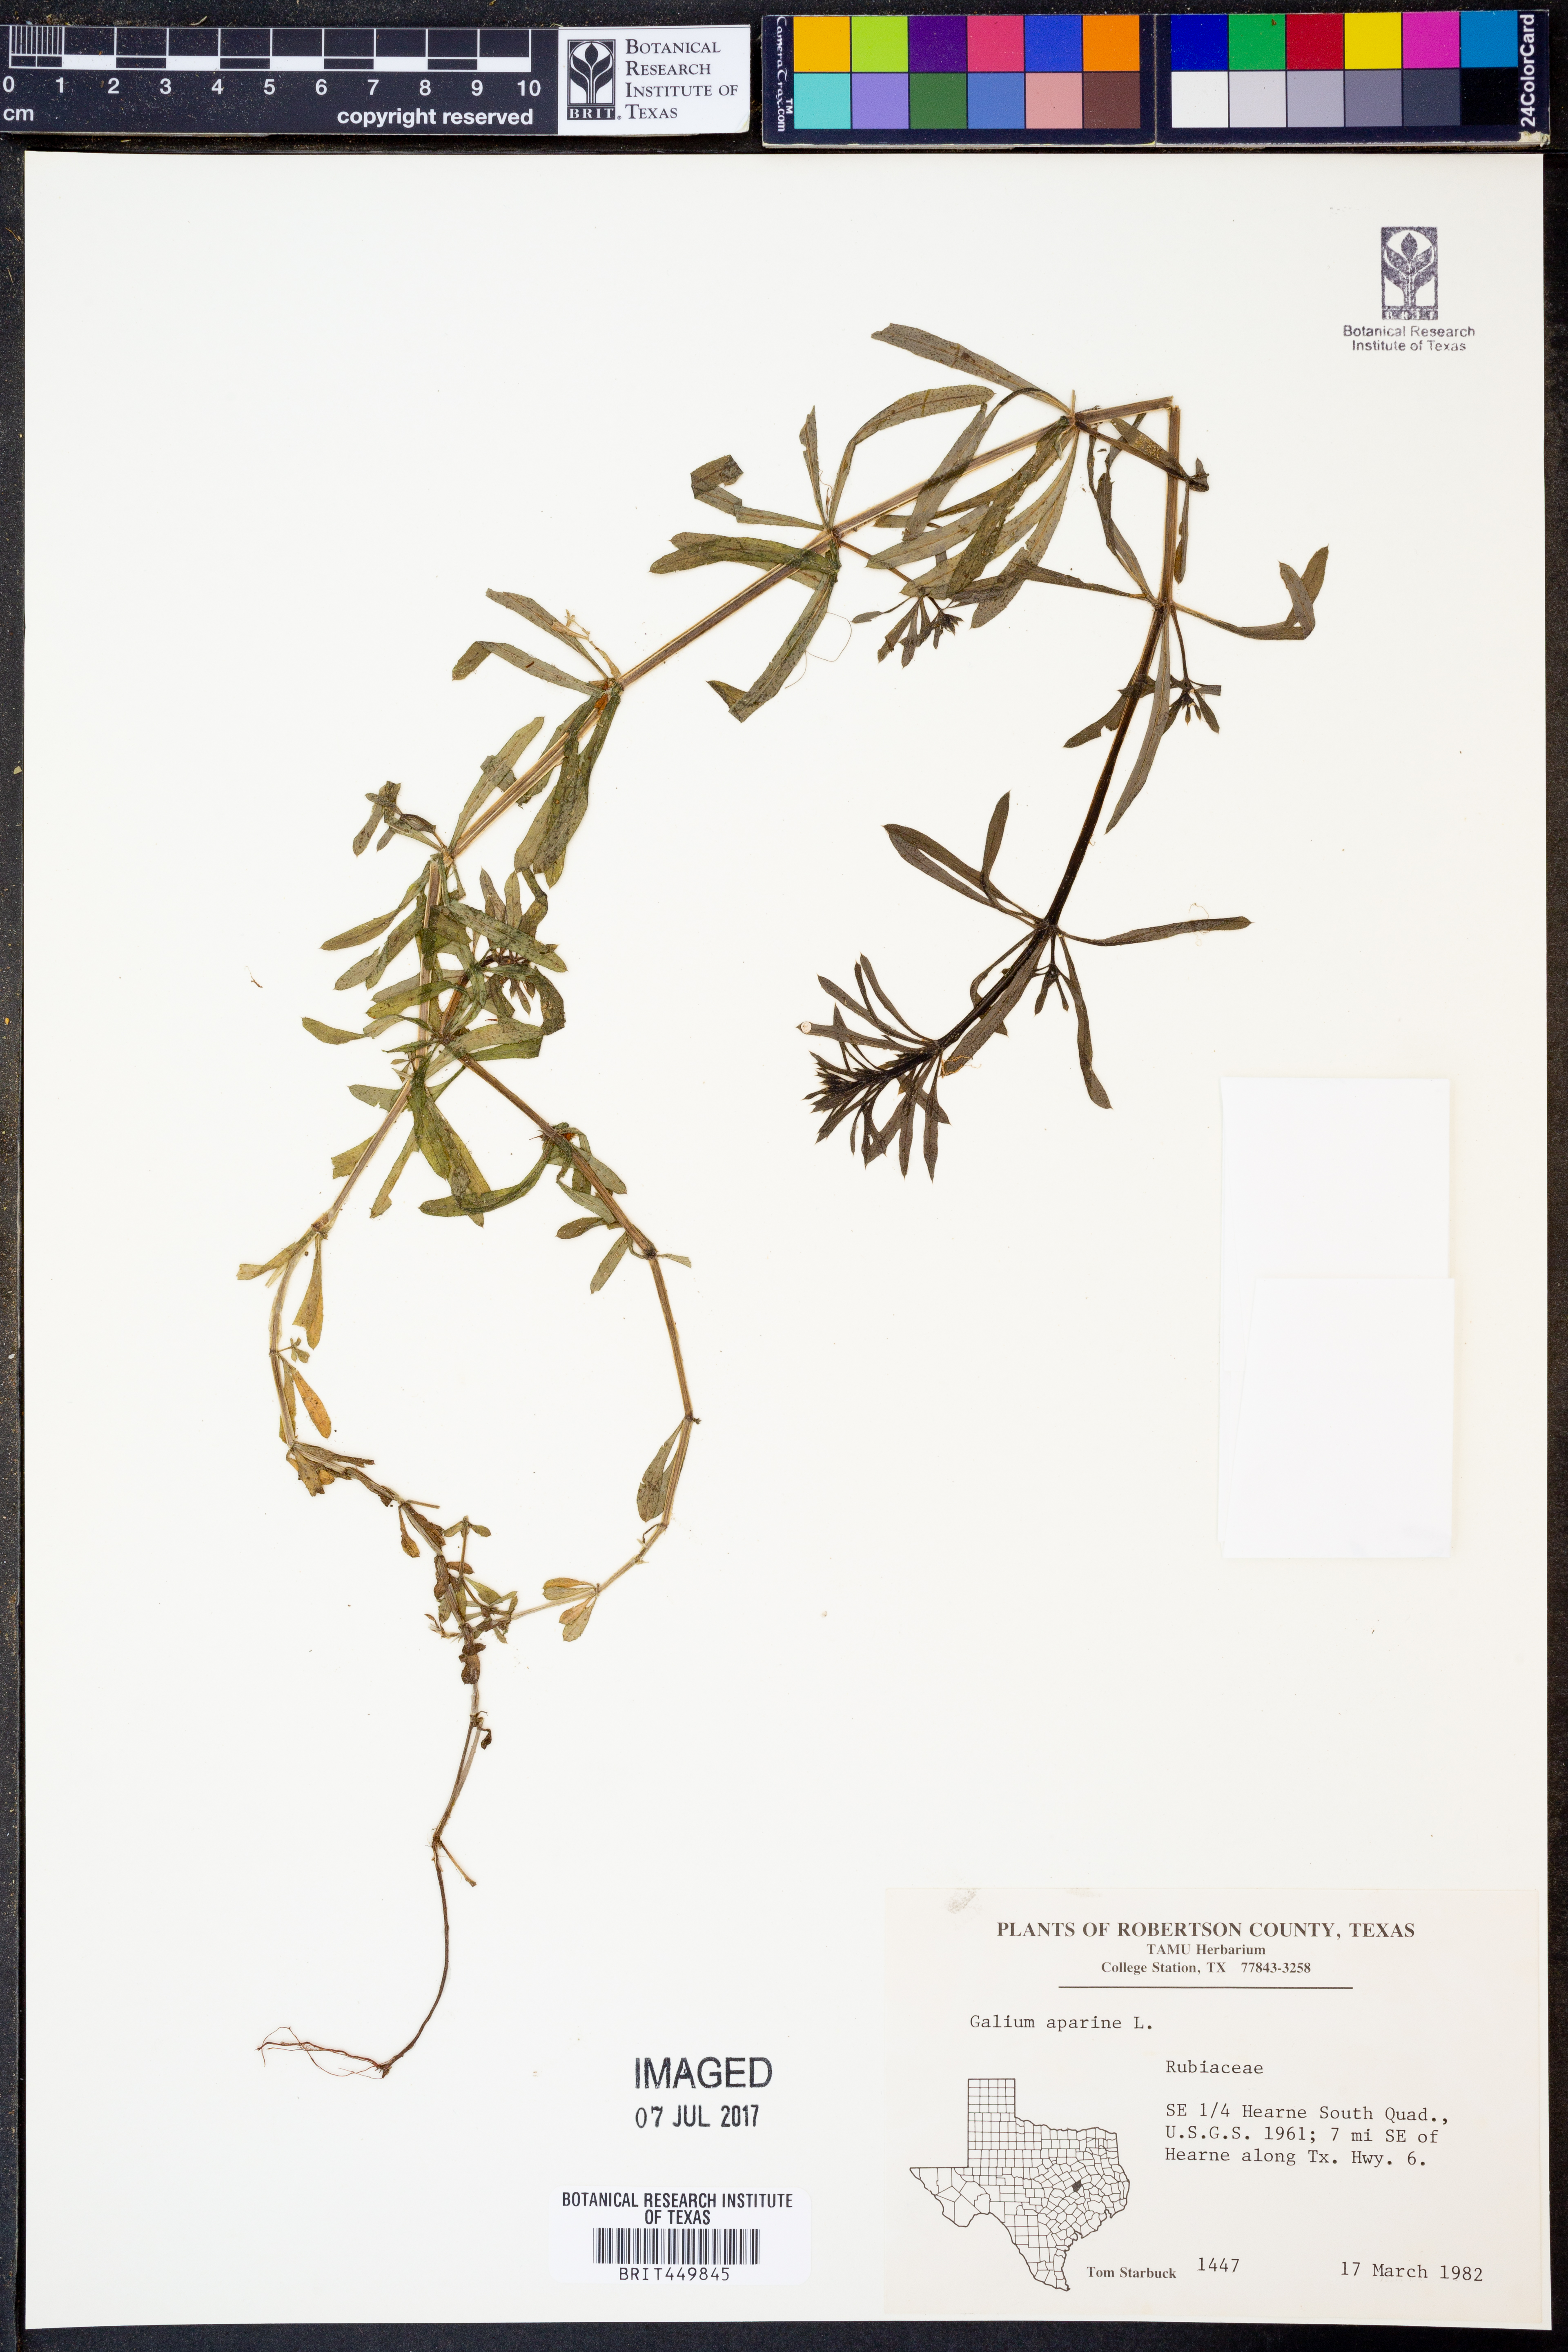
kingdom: Plantae
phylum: Tracheophyta
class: Magnoliopsida
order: Gentianales
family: Rubiaceae
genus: Galium
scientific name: Galium aparine
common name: Cleavers
